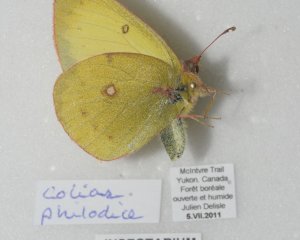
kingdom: Animalia
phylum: Arthropoda
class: Insecta
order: Lepidoptera
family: Pieridae
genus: Colias
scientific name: Colias philodice
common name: Clouded Sulphur
